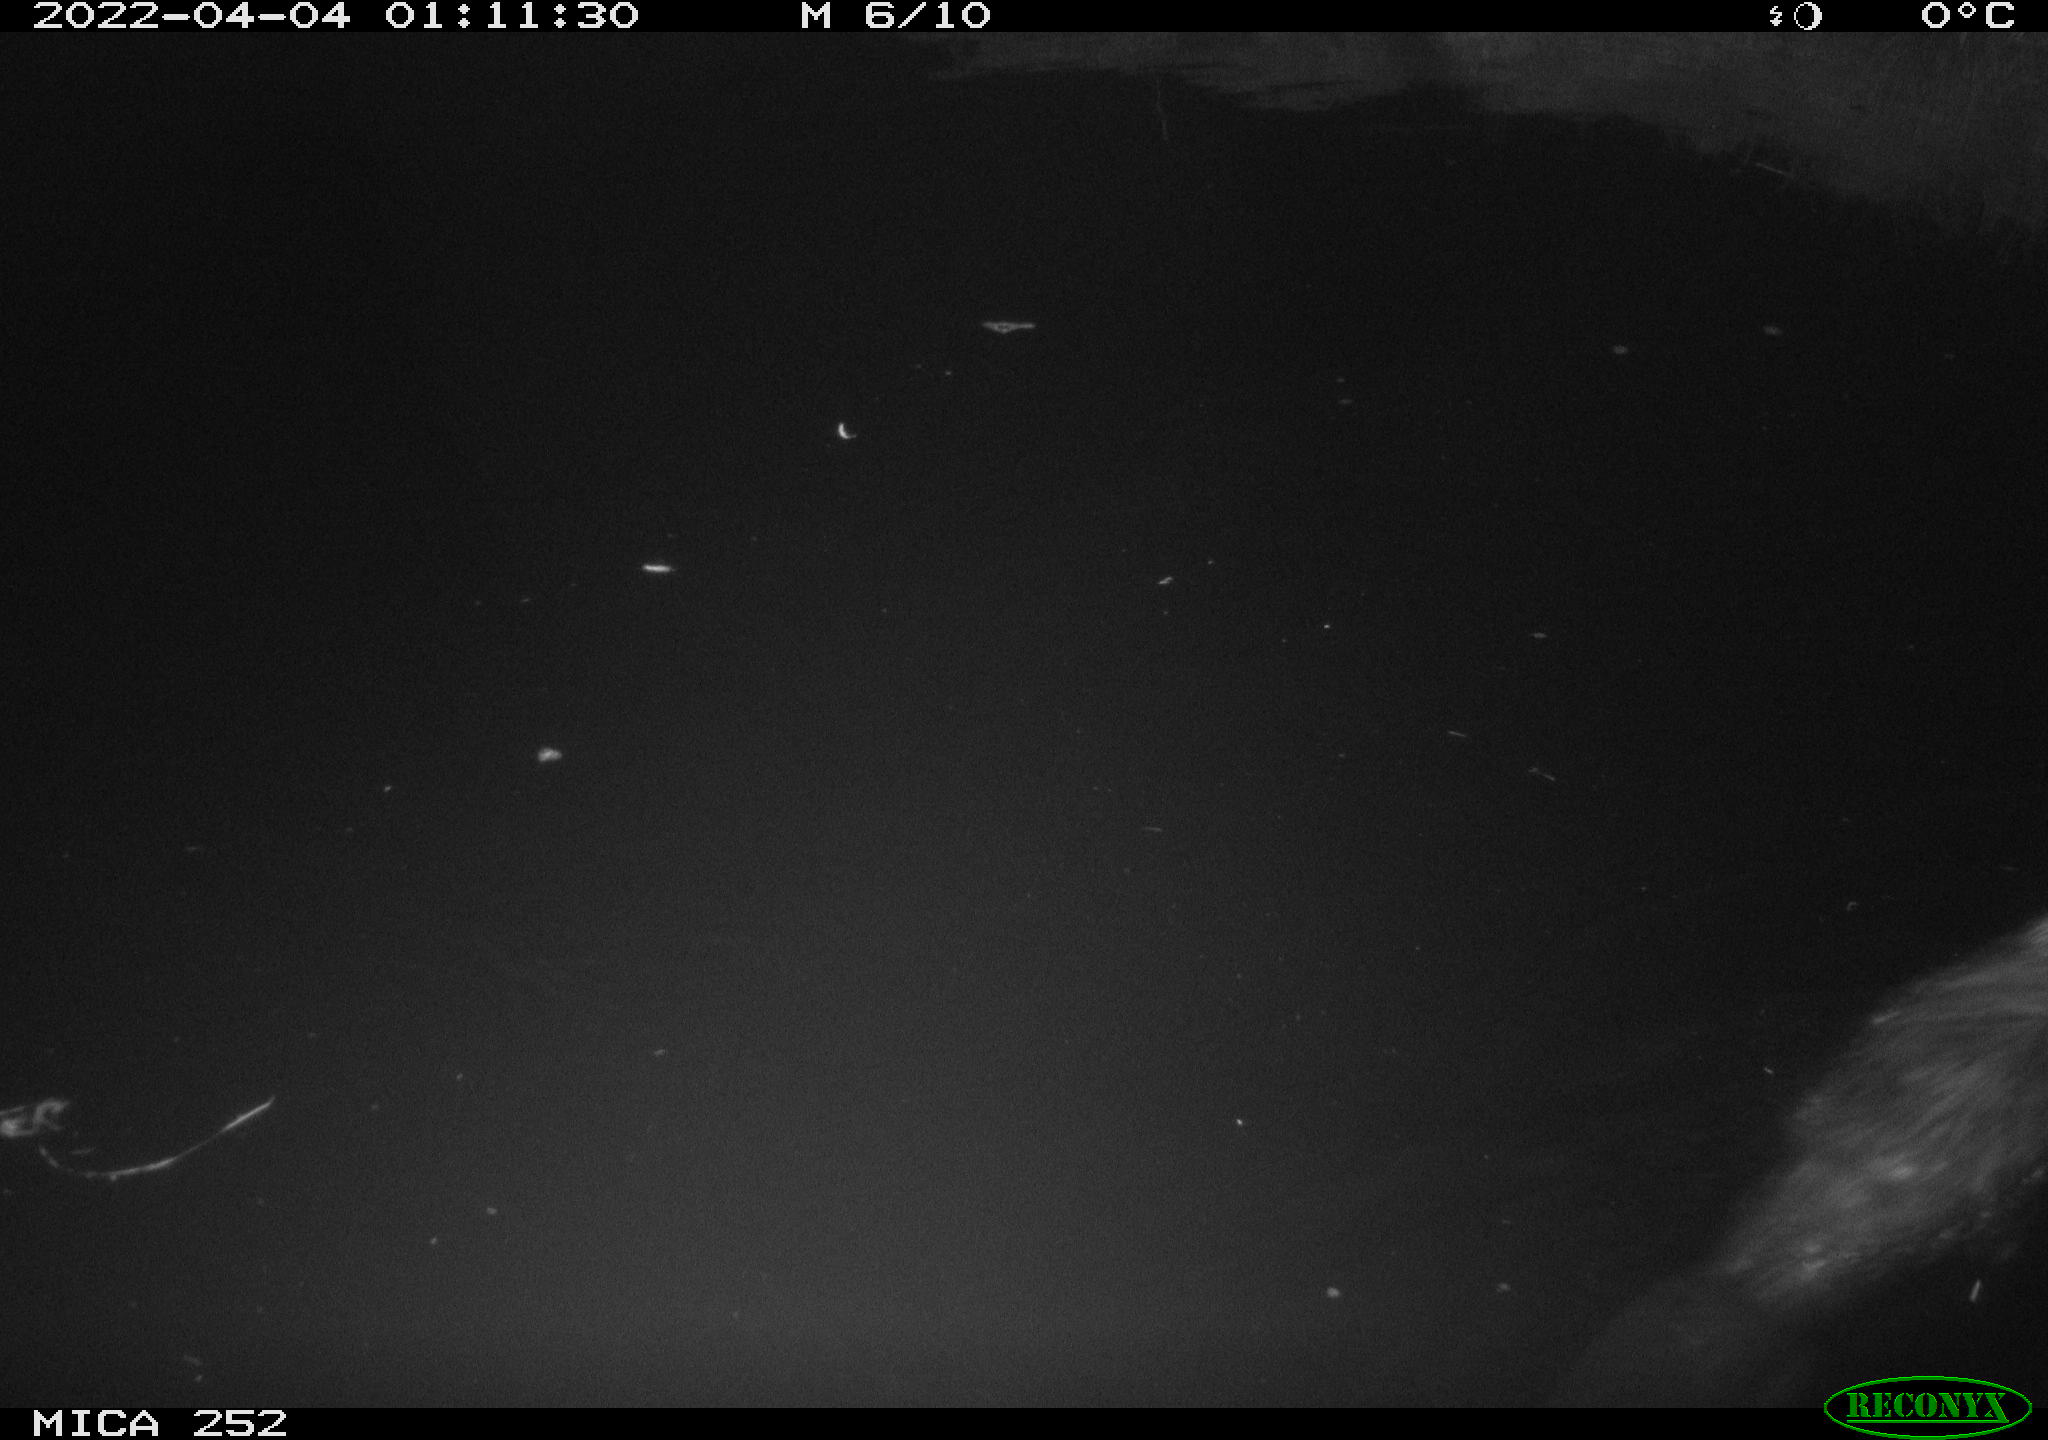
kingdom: Animalia
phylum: Chordata
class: Mammalia
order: Rodentia
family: Castoridae
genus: Castor
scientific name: Castor fiber
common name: Eurasian beaver
